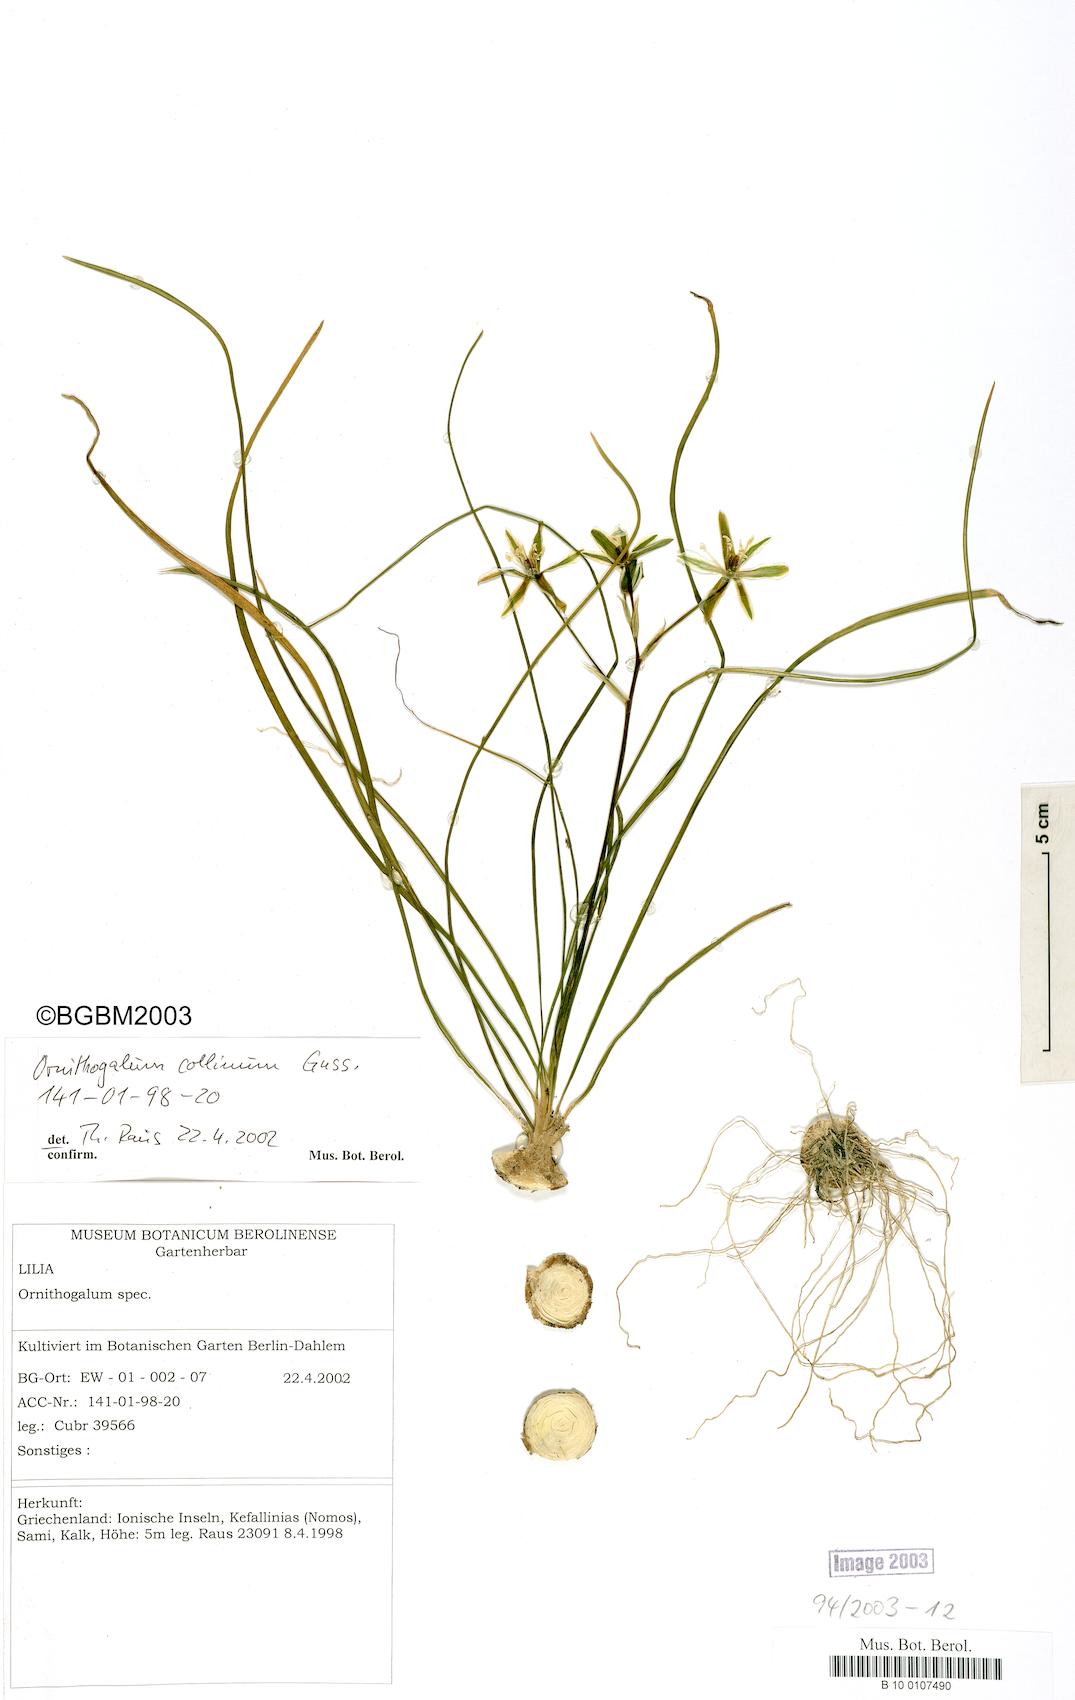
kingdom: Plantae
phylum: Tracheophyta
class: Liliopsida
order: Asparagales
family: Asparagaceae
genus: Ornithogalum
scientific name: Ornithogalum collinum
